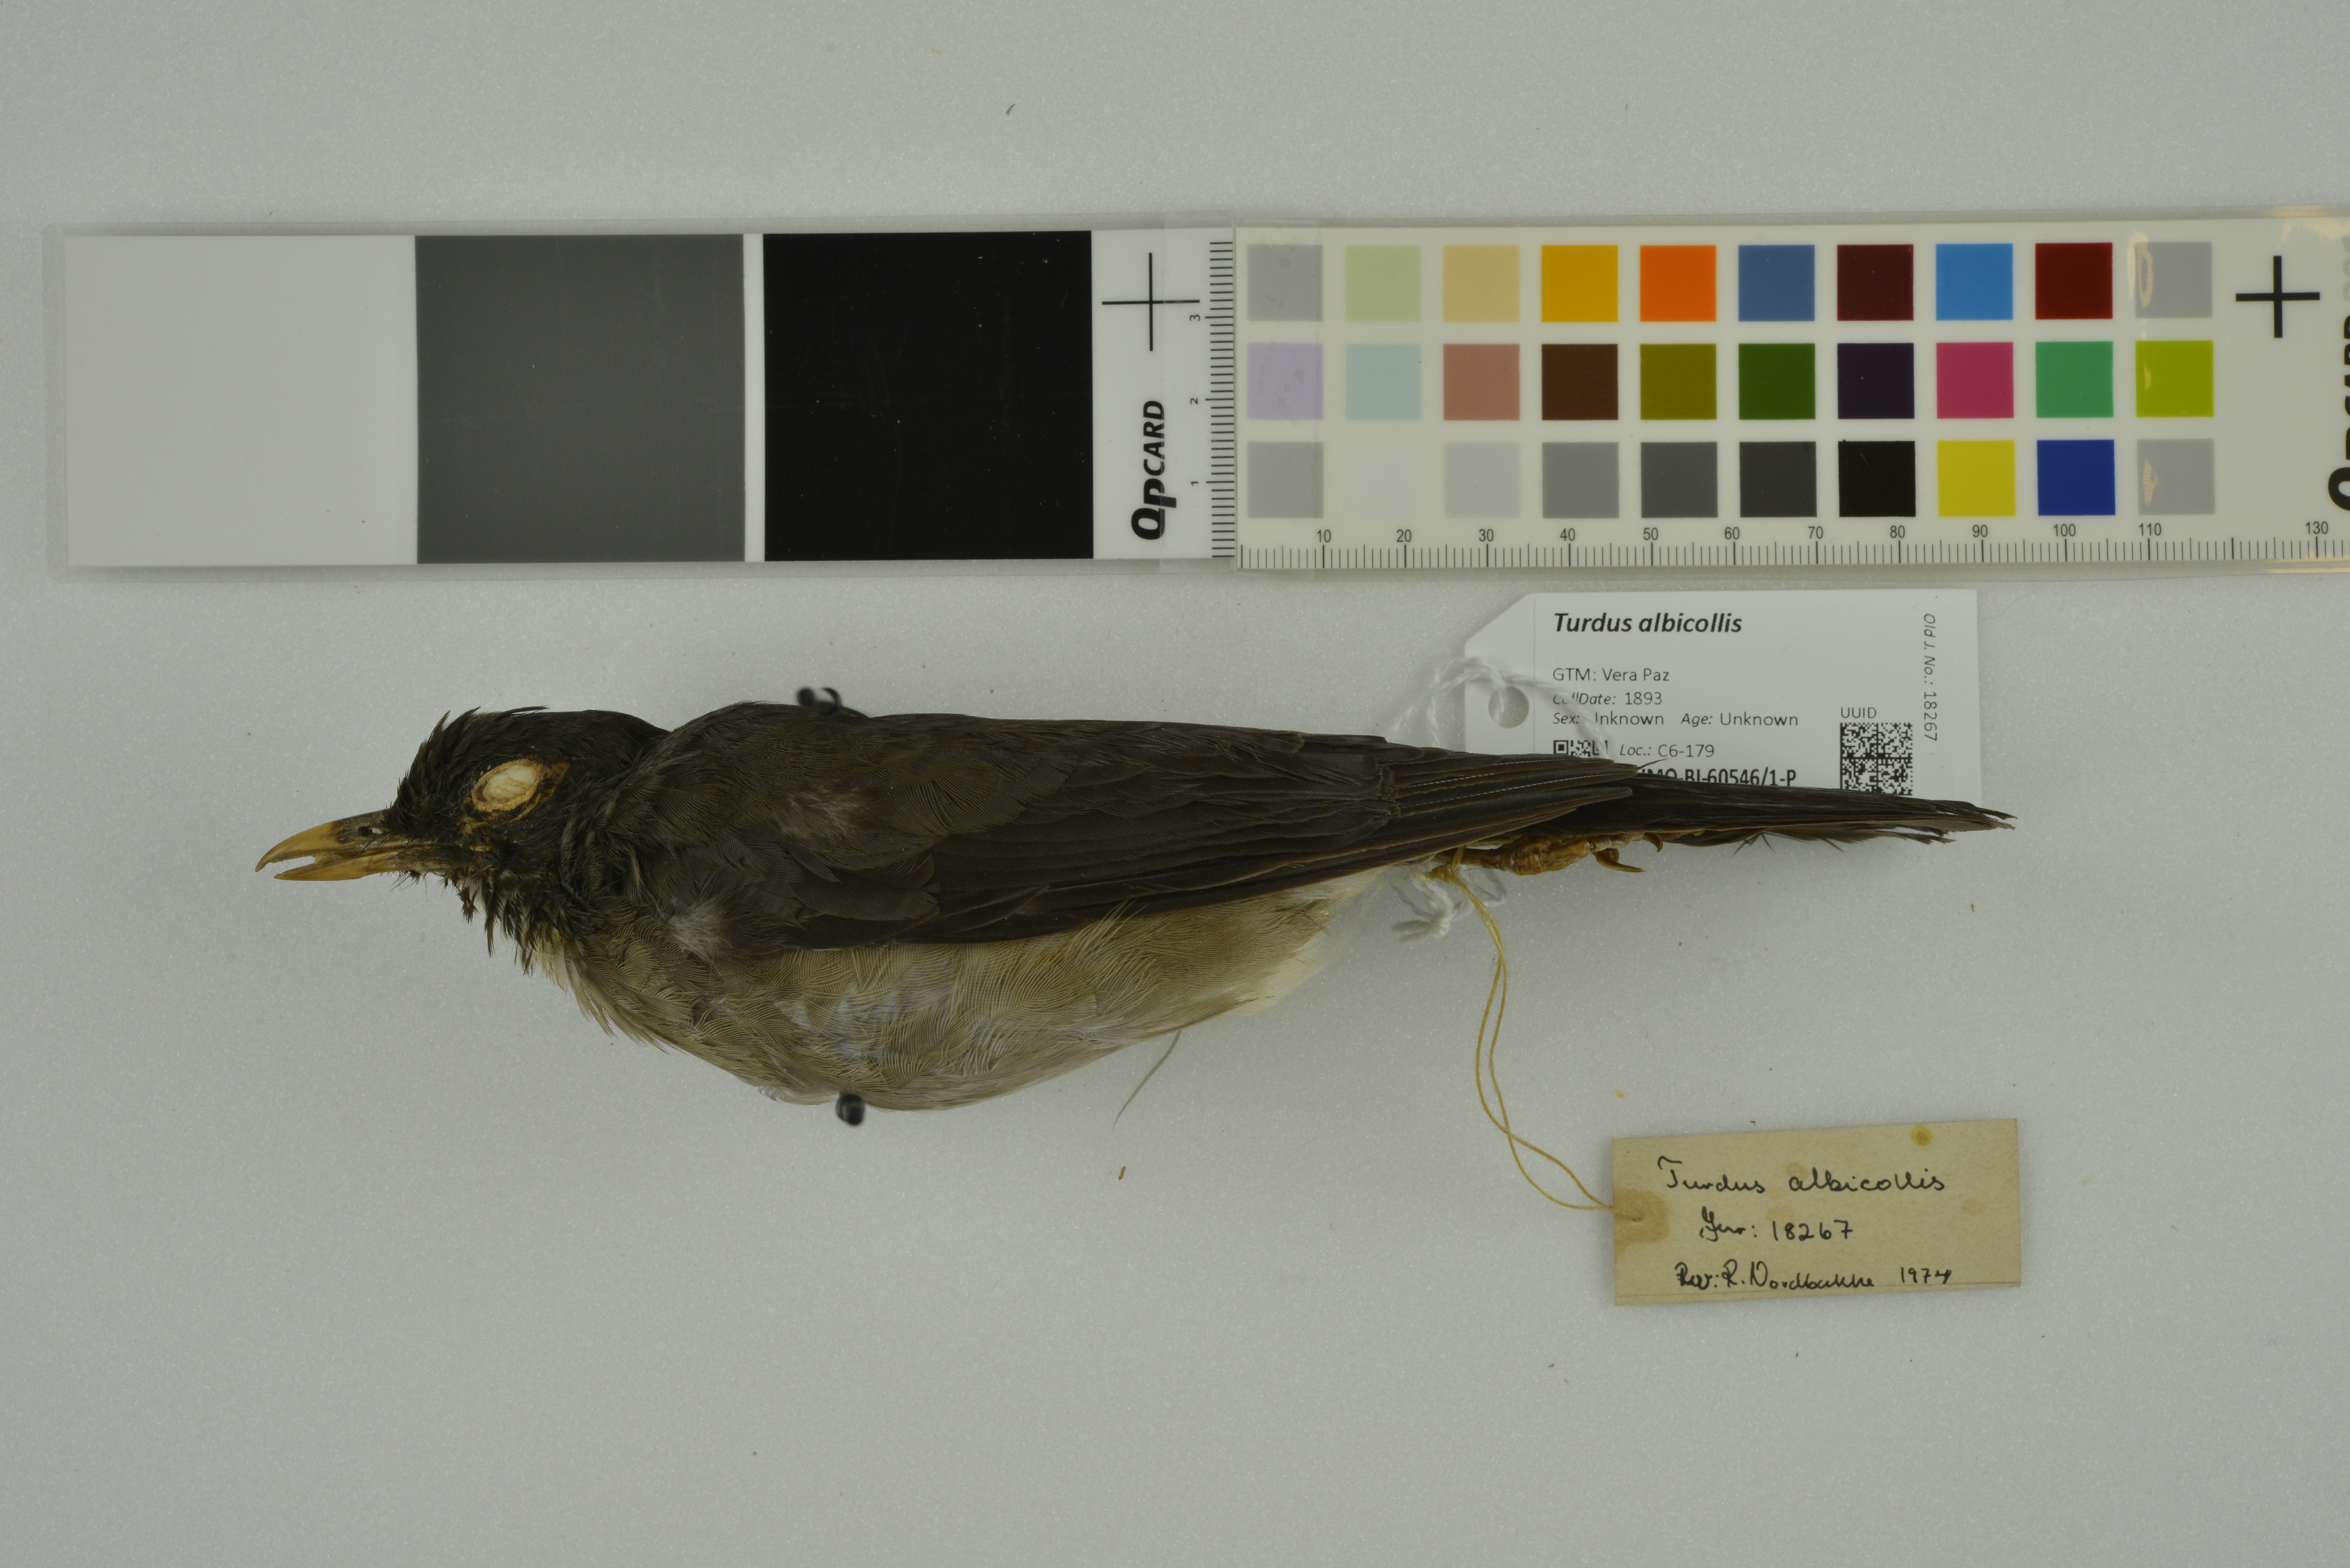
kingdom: Animalia
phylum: Chordata
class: Aves
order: Passeriformes
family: Turdidae
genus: Turdus
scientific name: Turdus albicollis
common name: White-necked thrush
